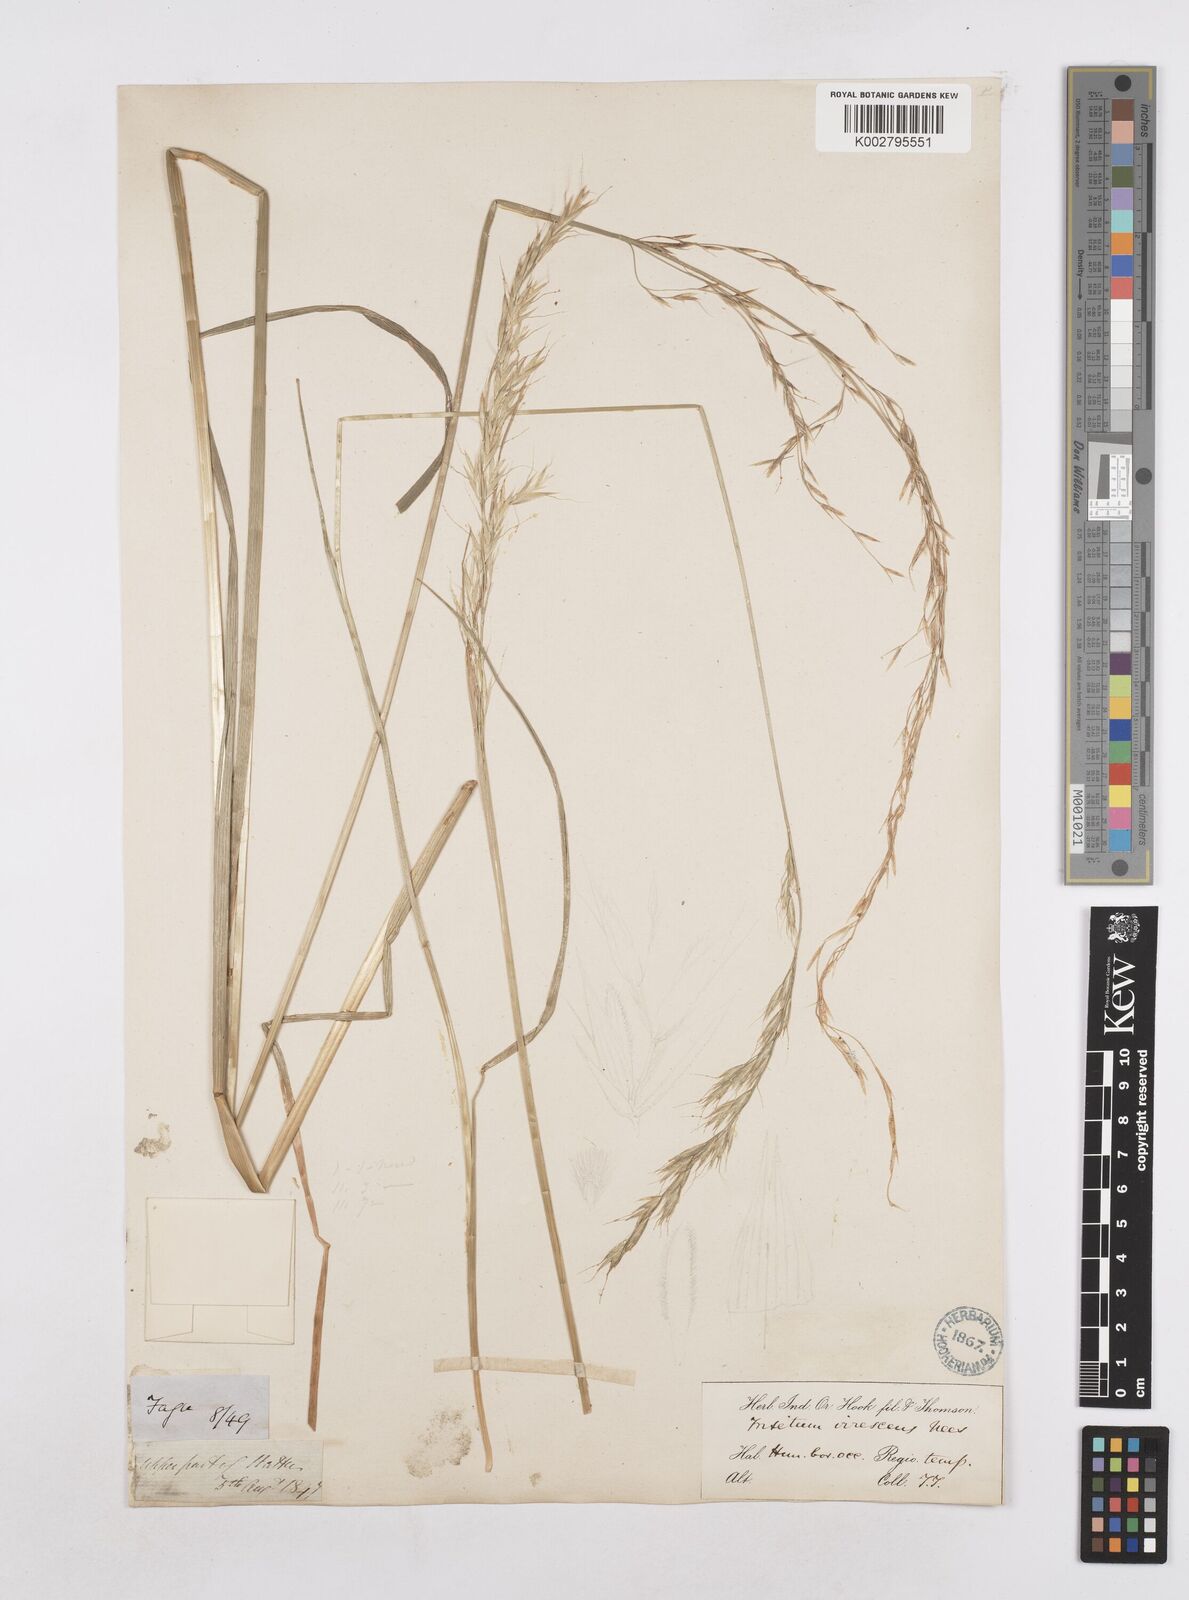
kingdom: Plantae
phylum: Tracheophyta
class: Liliopsida
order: Poales
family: Poaceae
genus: Trisetopsis
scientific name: Trisetopsis junghuhnii
